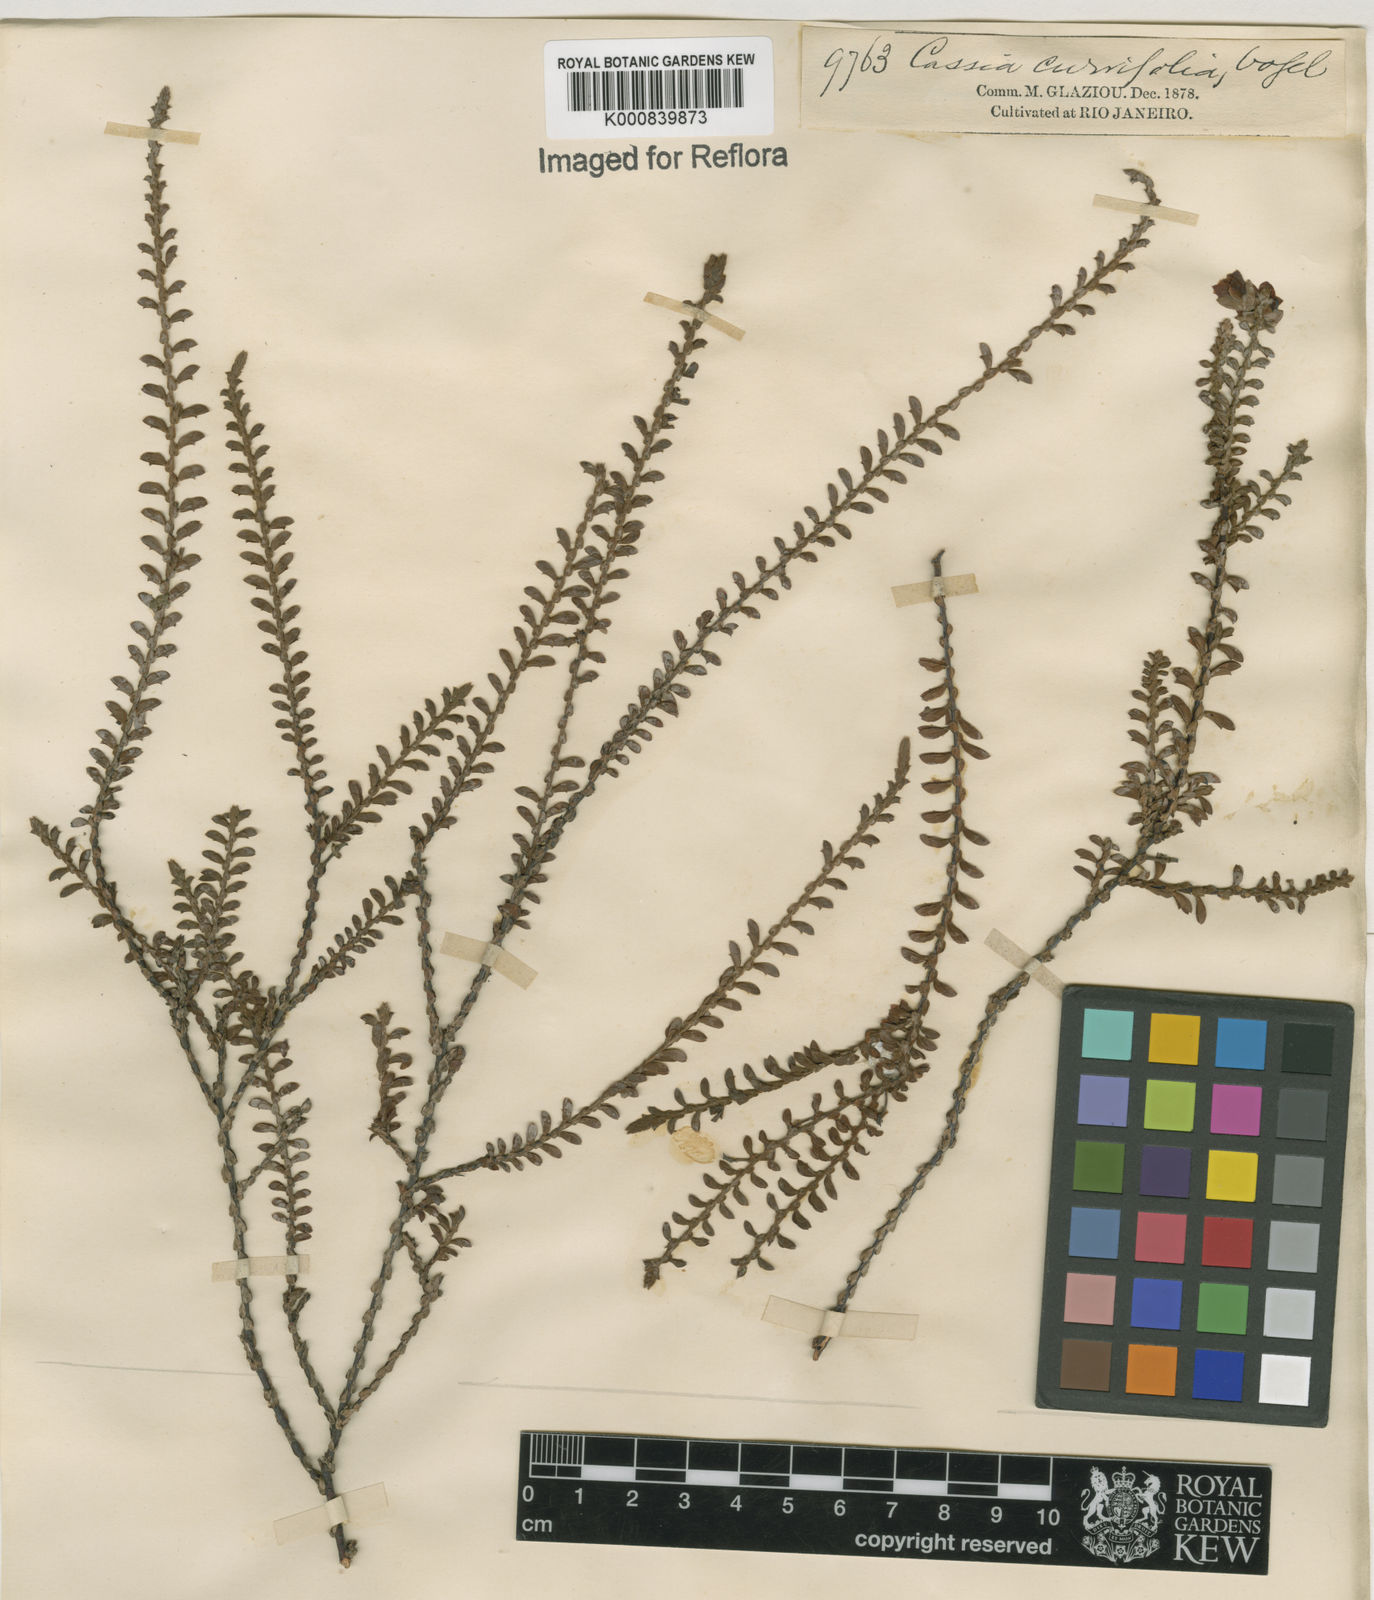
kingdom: Plantae
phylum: Tracheophyta
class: Magnoliopsida
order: Fabales
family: Fabaceae
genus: Chamaecrista
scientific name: Chamaecrista ramosa
